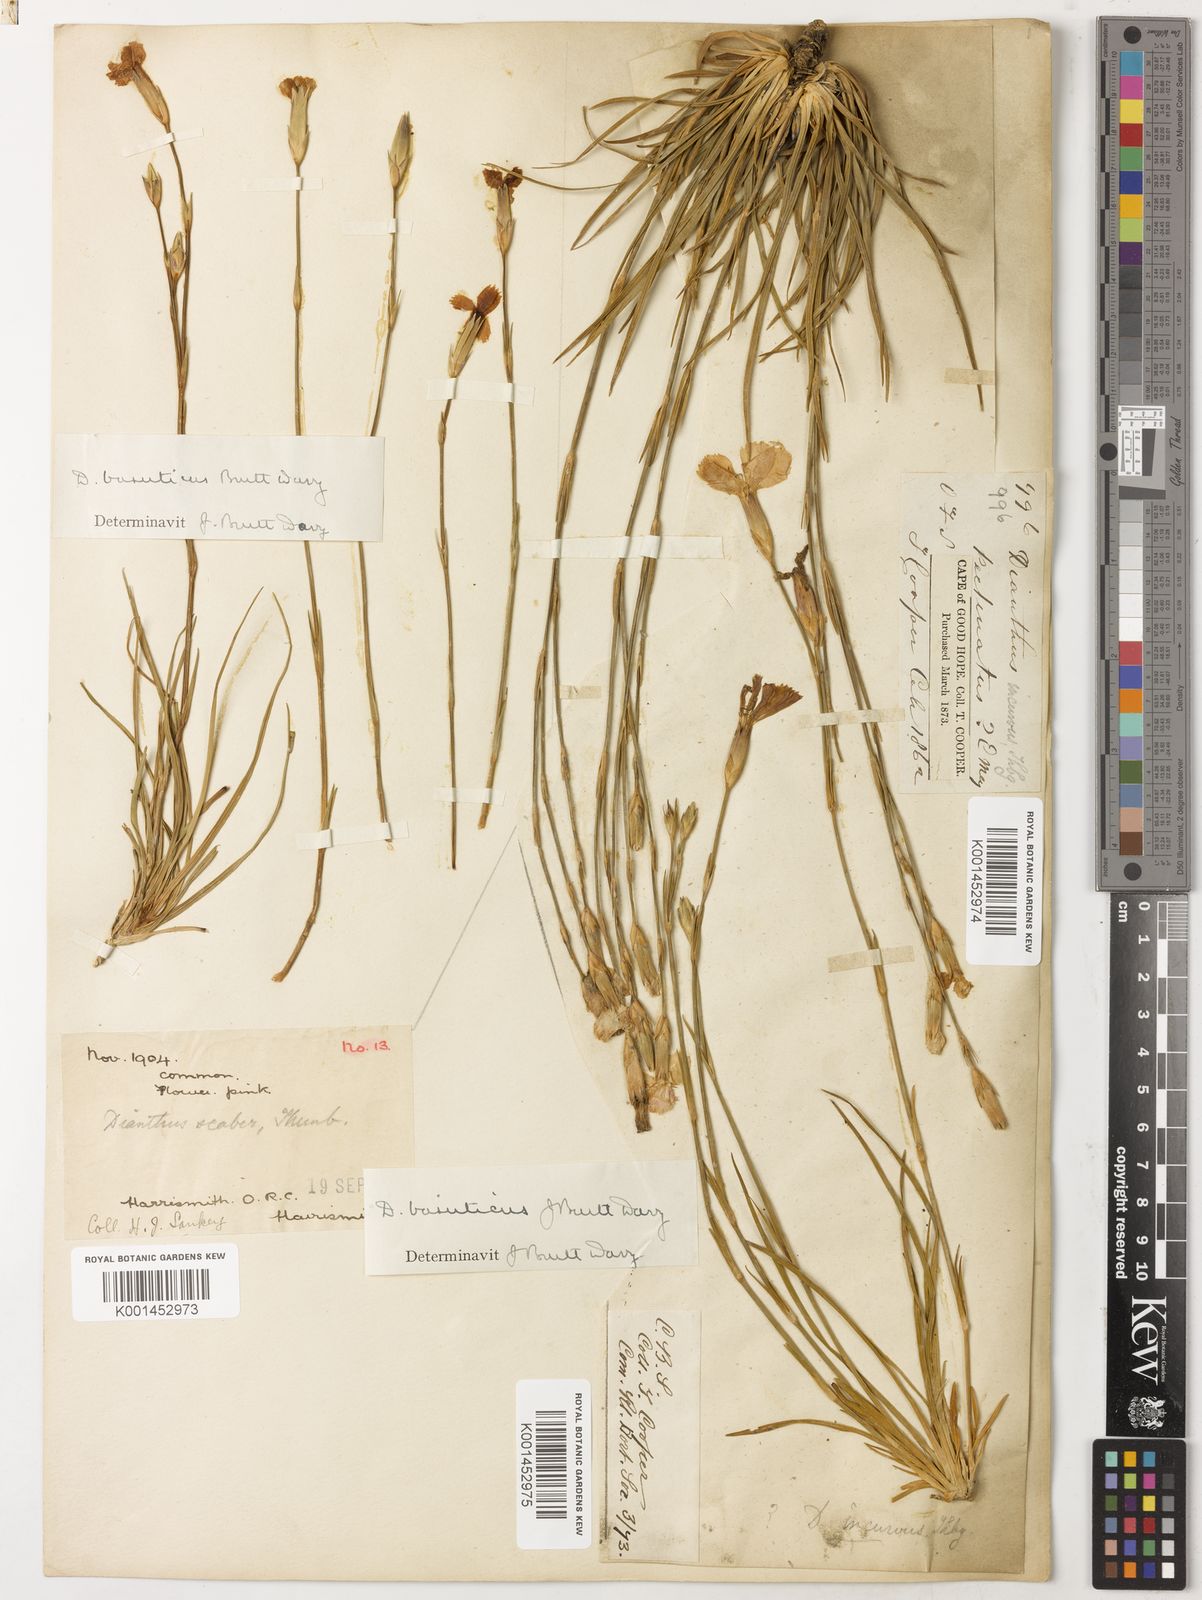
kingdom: Plantae
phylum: Tracheophyta
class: Magnoliopsida
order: Caryophyllales
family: Caryophyllaceae
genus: Dianthus
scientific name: Dianthus basuticus
